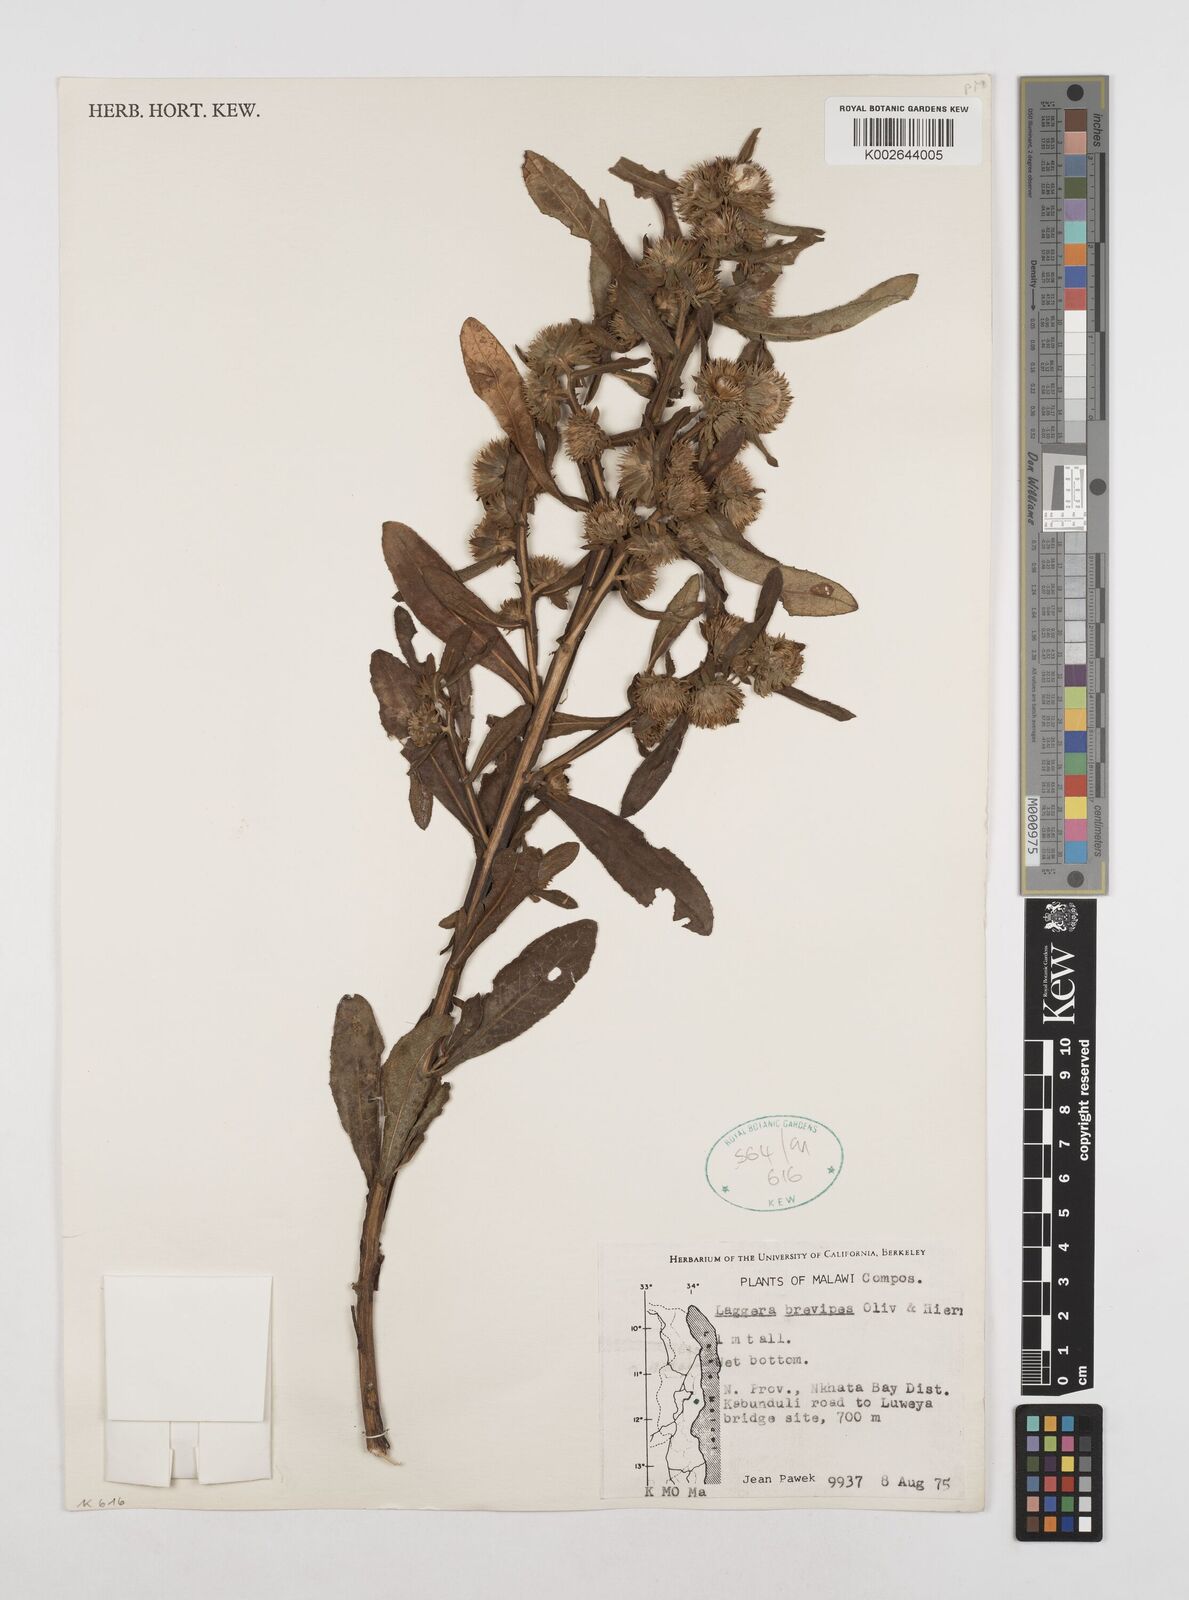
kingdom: Plantae
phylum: Tracheophyta
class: Magnoliopsida
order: Asterales
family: Asteraceae
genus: Laggera
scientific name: Laggera brevipes
